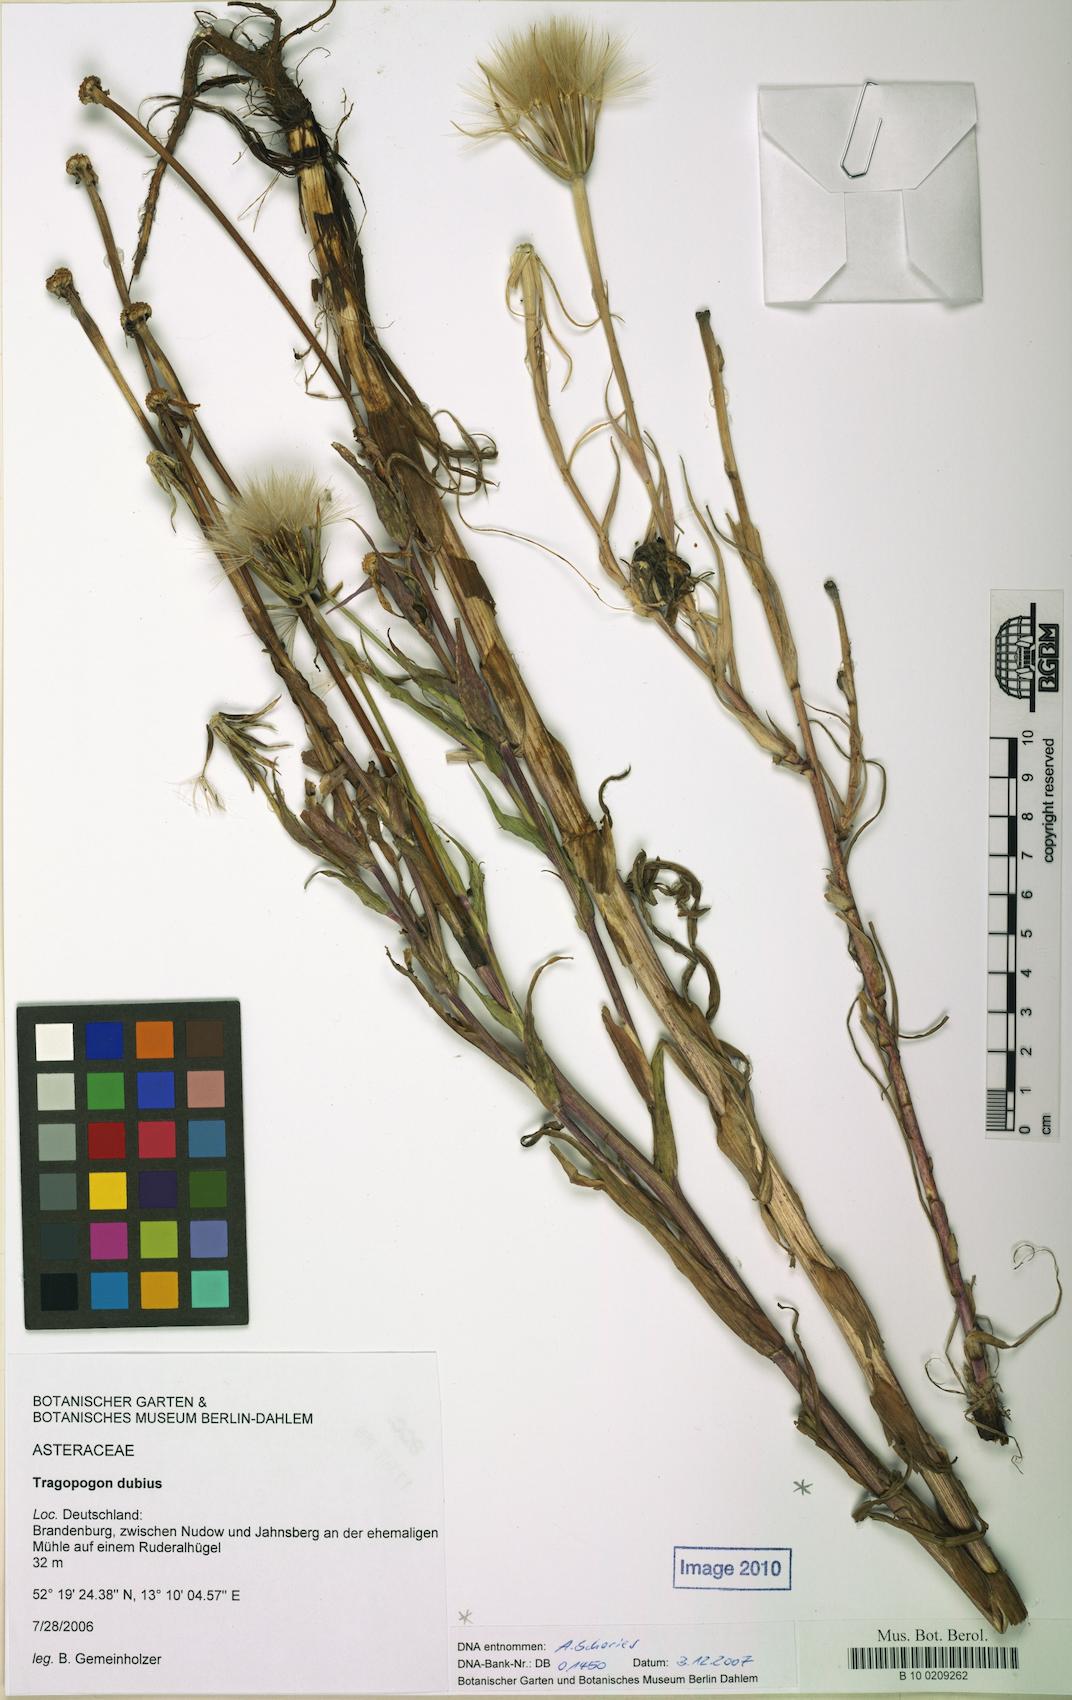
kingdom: Plantae
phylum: Tracheophyta
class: Magnoliopsida
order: Asterales
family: Asteraceae
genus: Tragopogon
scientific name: Tragopogon dubius
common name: Yellow salsify
